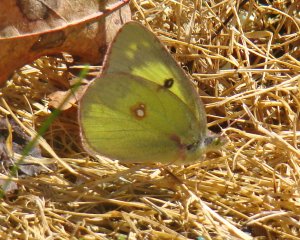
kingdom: Animalia
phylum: Arthropoda
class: Insecta
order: Lepidoptera
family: Pieridae
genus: Colias
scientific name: Colias philodice
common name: Clouded Sulphur
